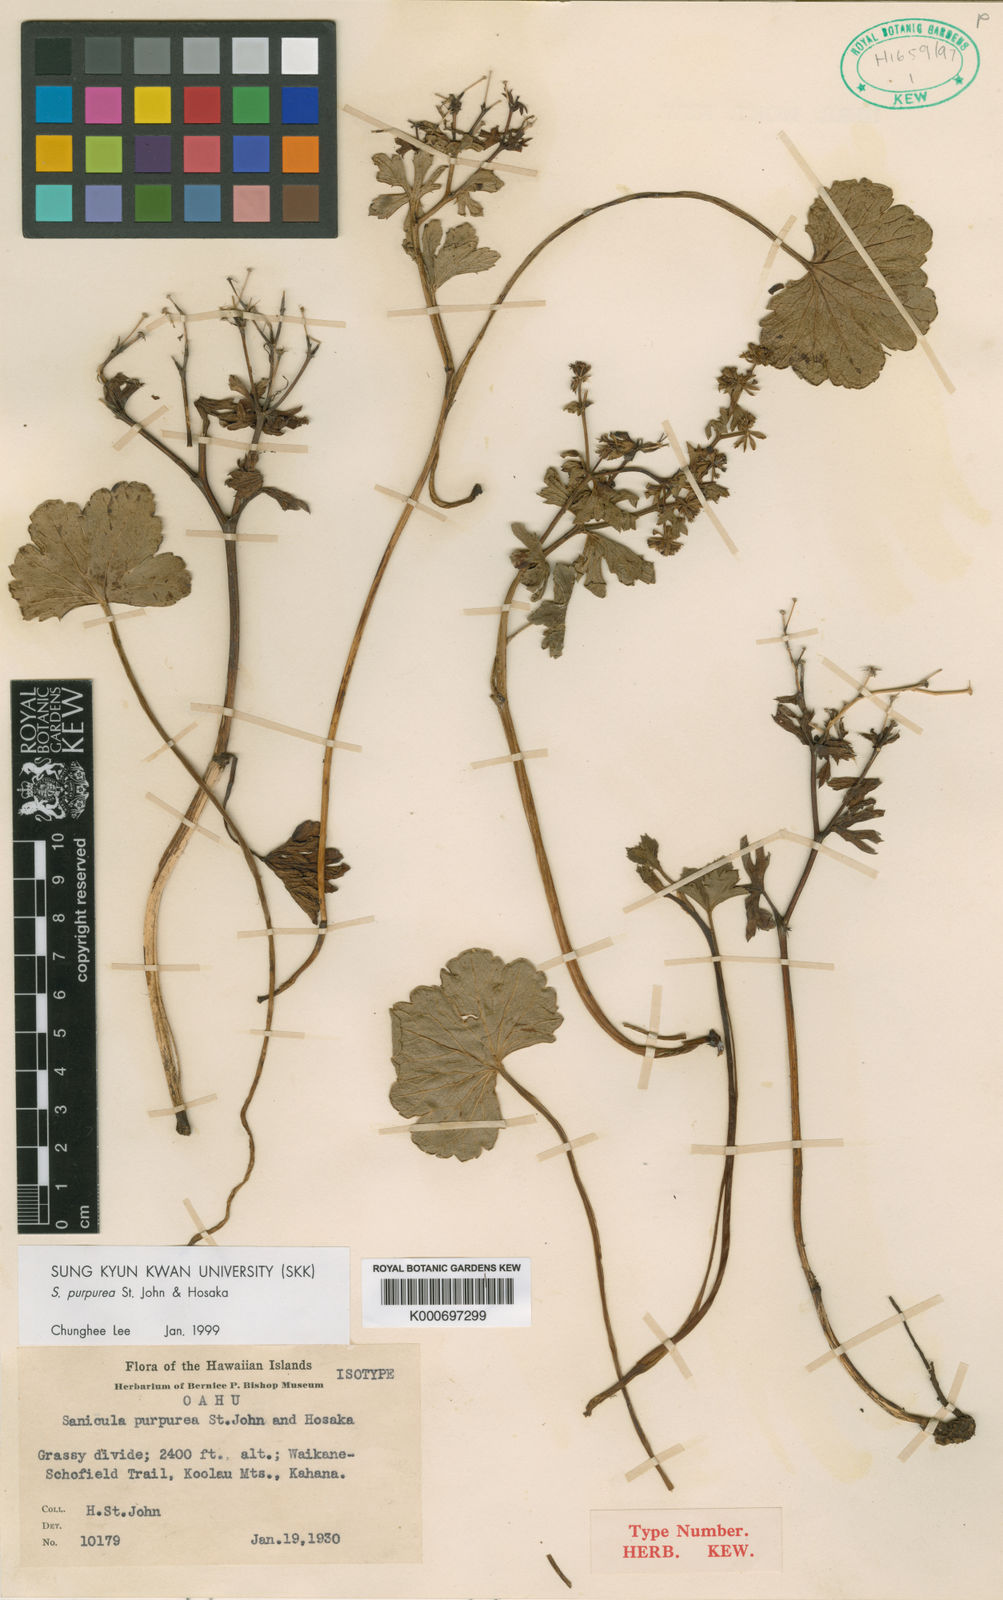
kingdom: Plantae
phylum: Tracheophyta
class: Magnoliopsida
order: Apiales
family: Apiaceae
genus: Sanicula
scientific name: Sanicula purpurea
